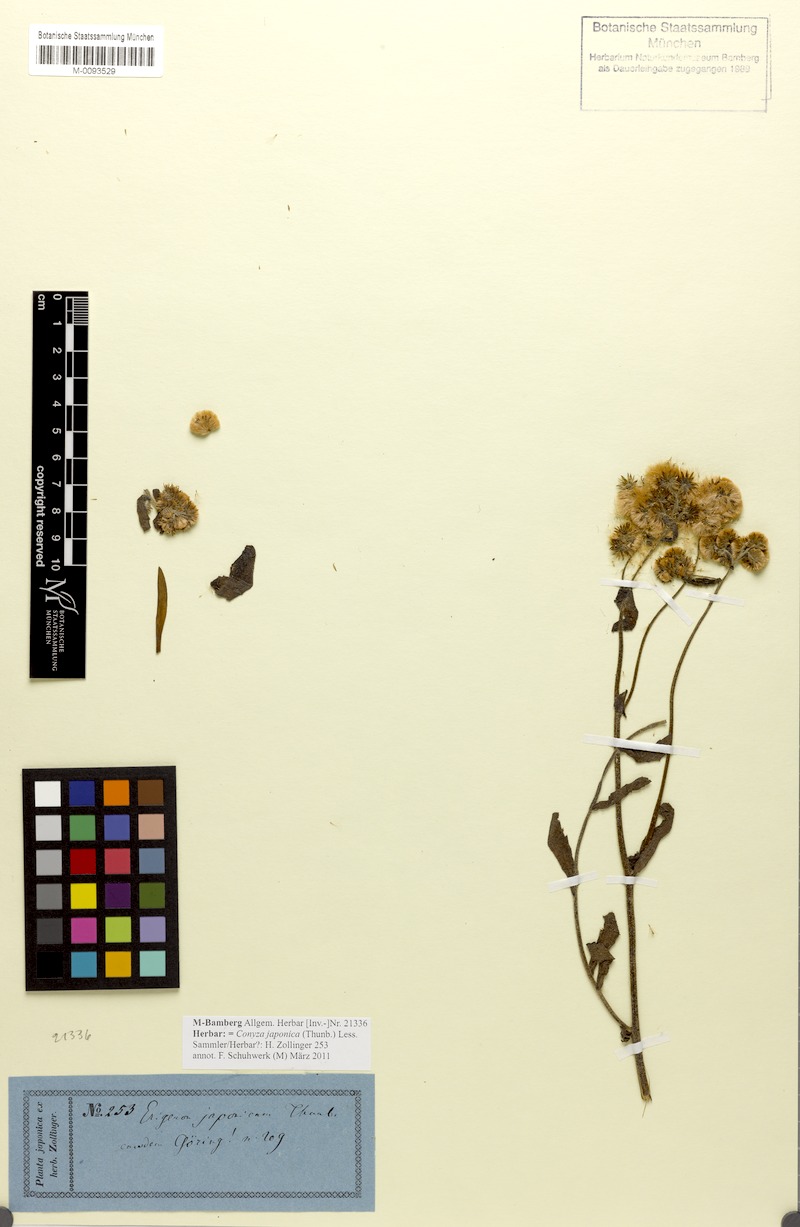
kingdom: Plantae
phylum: Tracheophyta
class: Magnoliopsida
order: Asterales
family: Asteraceae
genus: Eschenbachia
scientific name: Eschenbachia japonica
